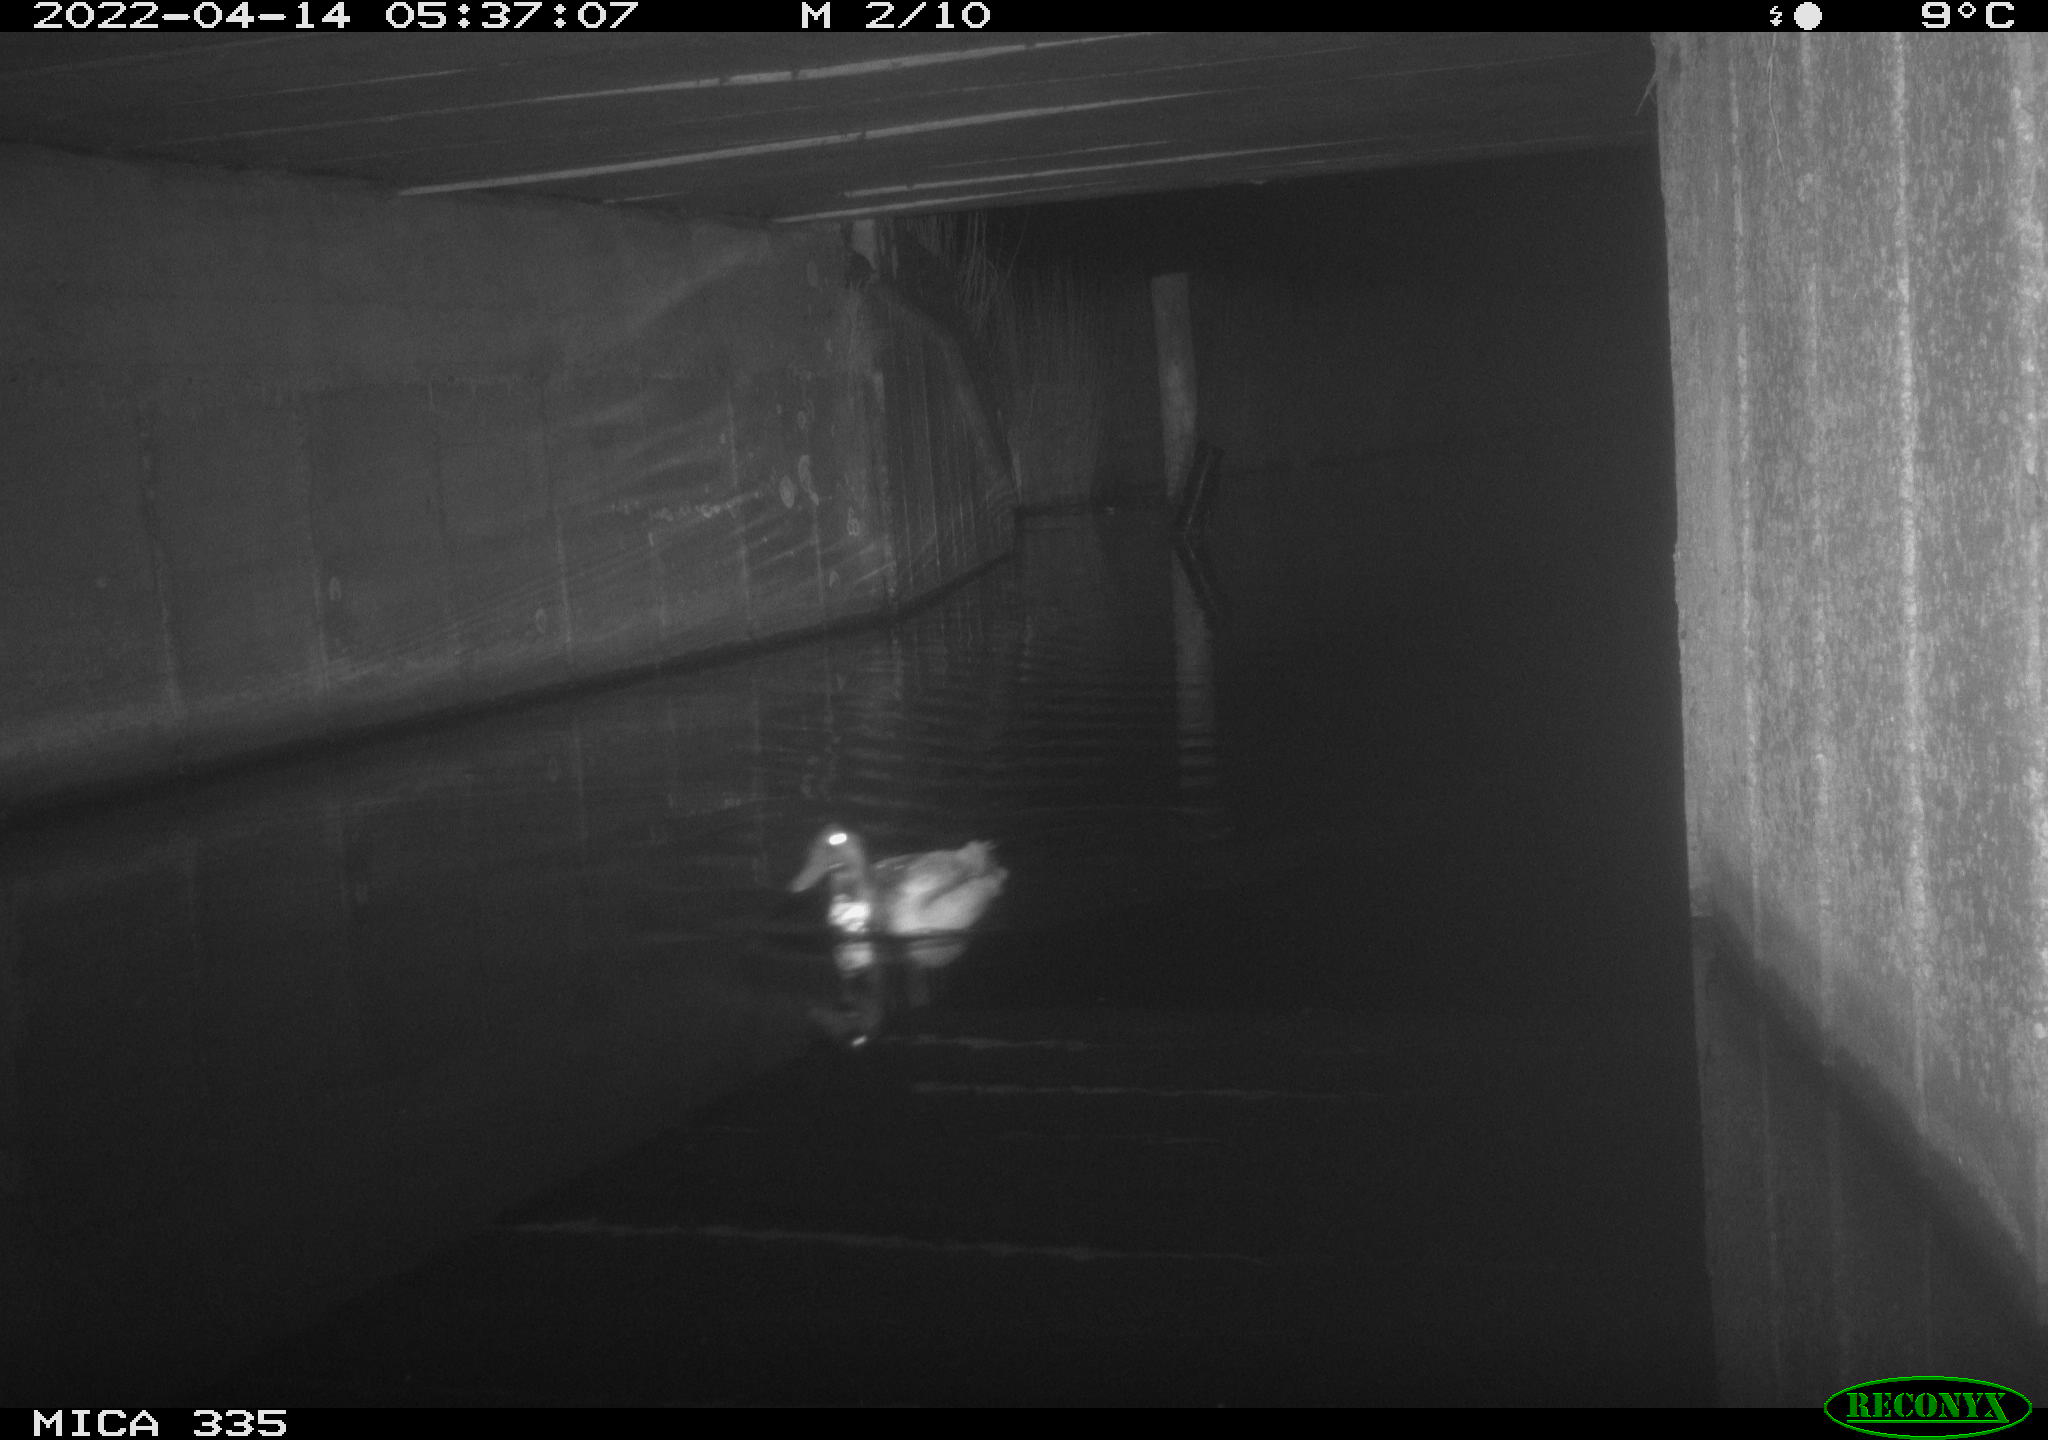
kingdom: Animalia
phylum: Chordata
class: Aves
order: Anseriformes
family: Anatidae
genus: Anas
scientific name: Anas platyrhynchos
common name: Mallard
